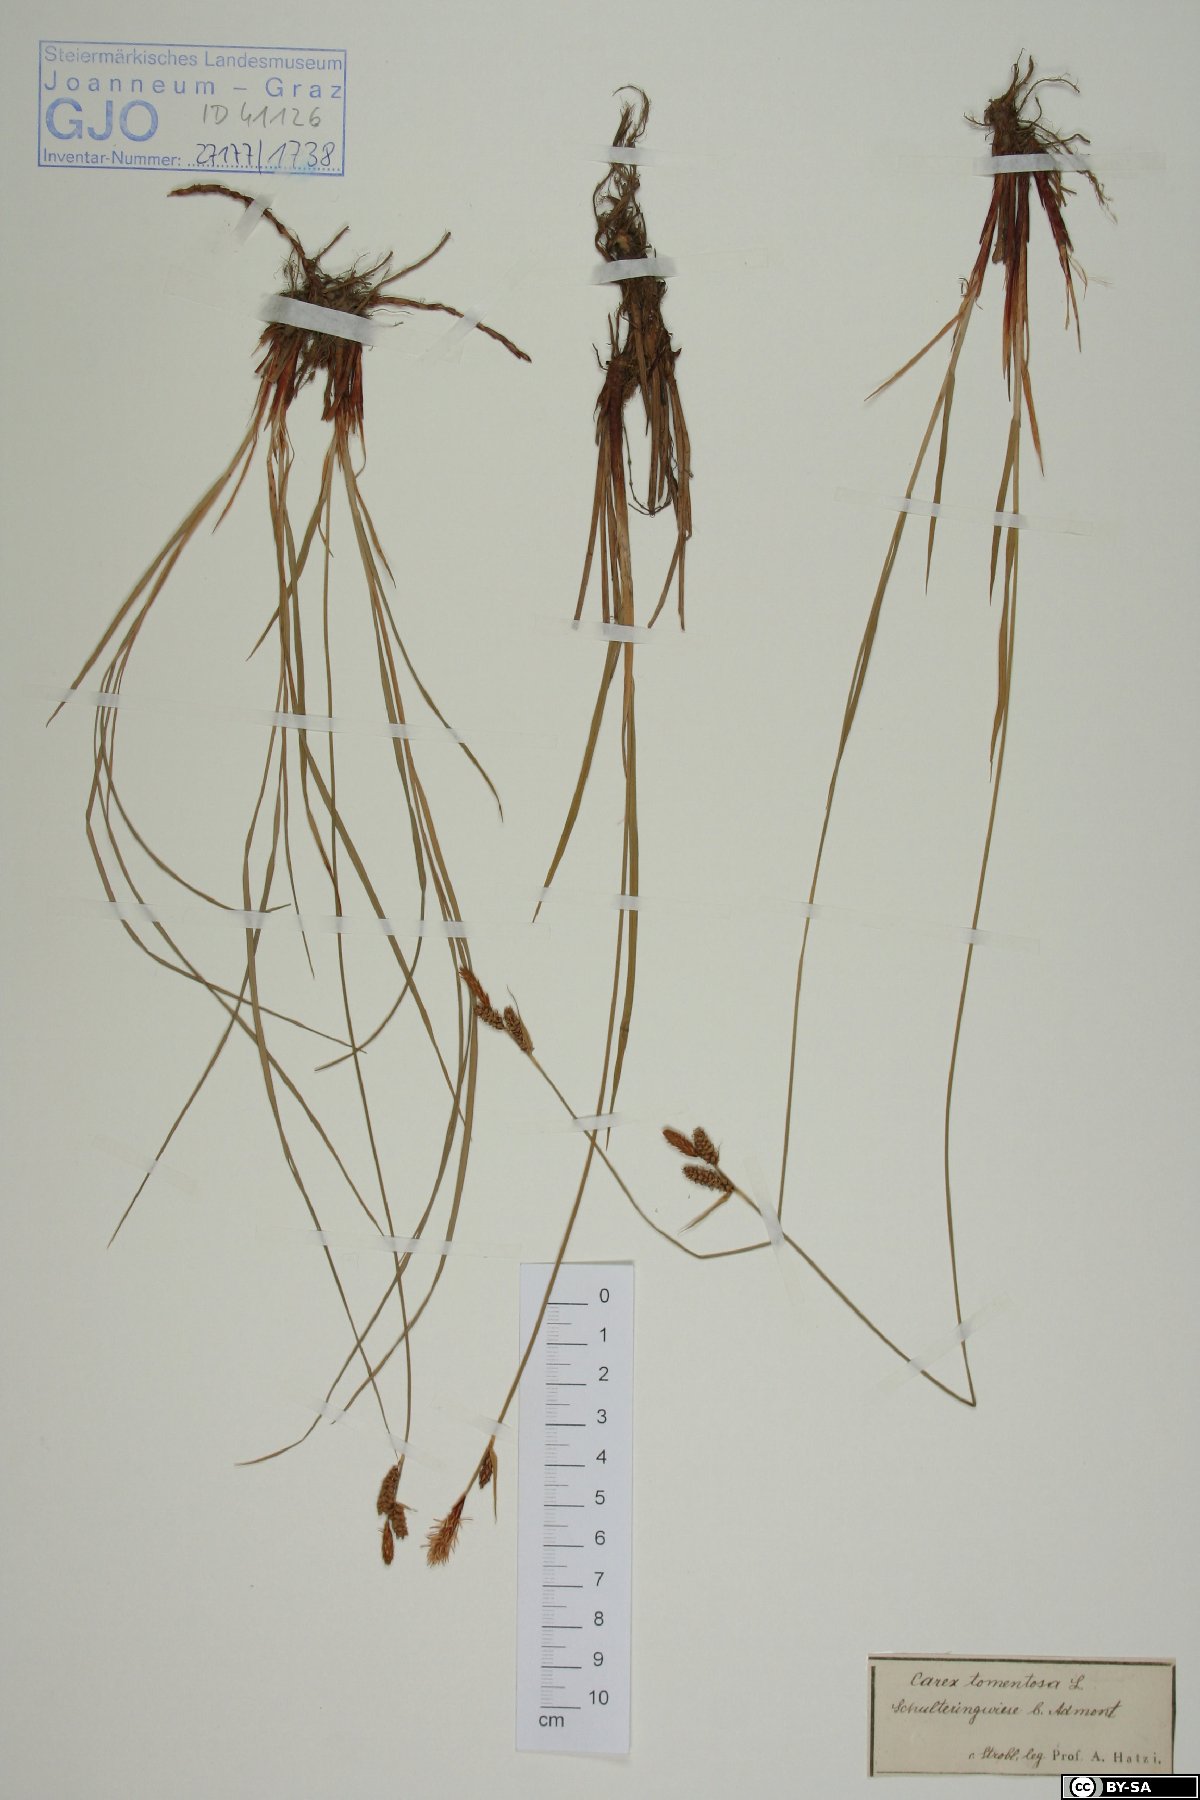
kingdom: Plantae
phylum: Tracheophyta
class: Liliopsida
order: Poales
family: Cyperaceae
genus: Carex
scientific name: Carex tomentosa
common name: Downy-fruited sedge
